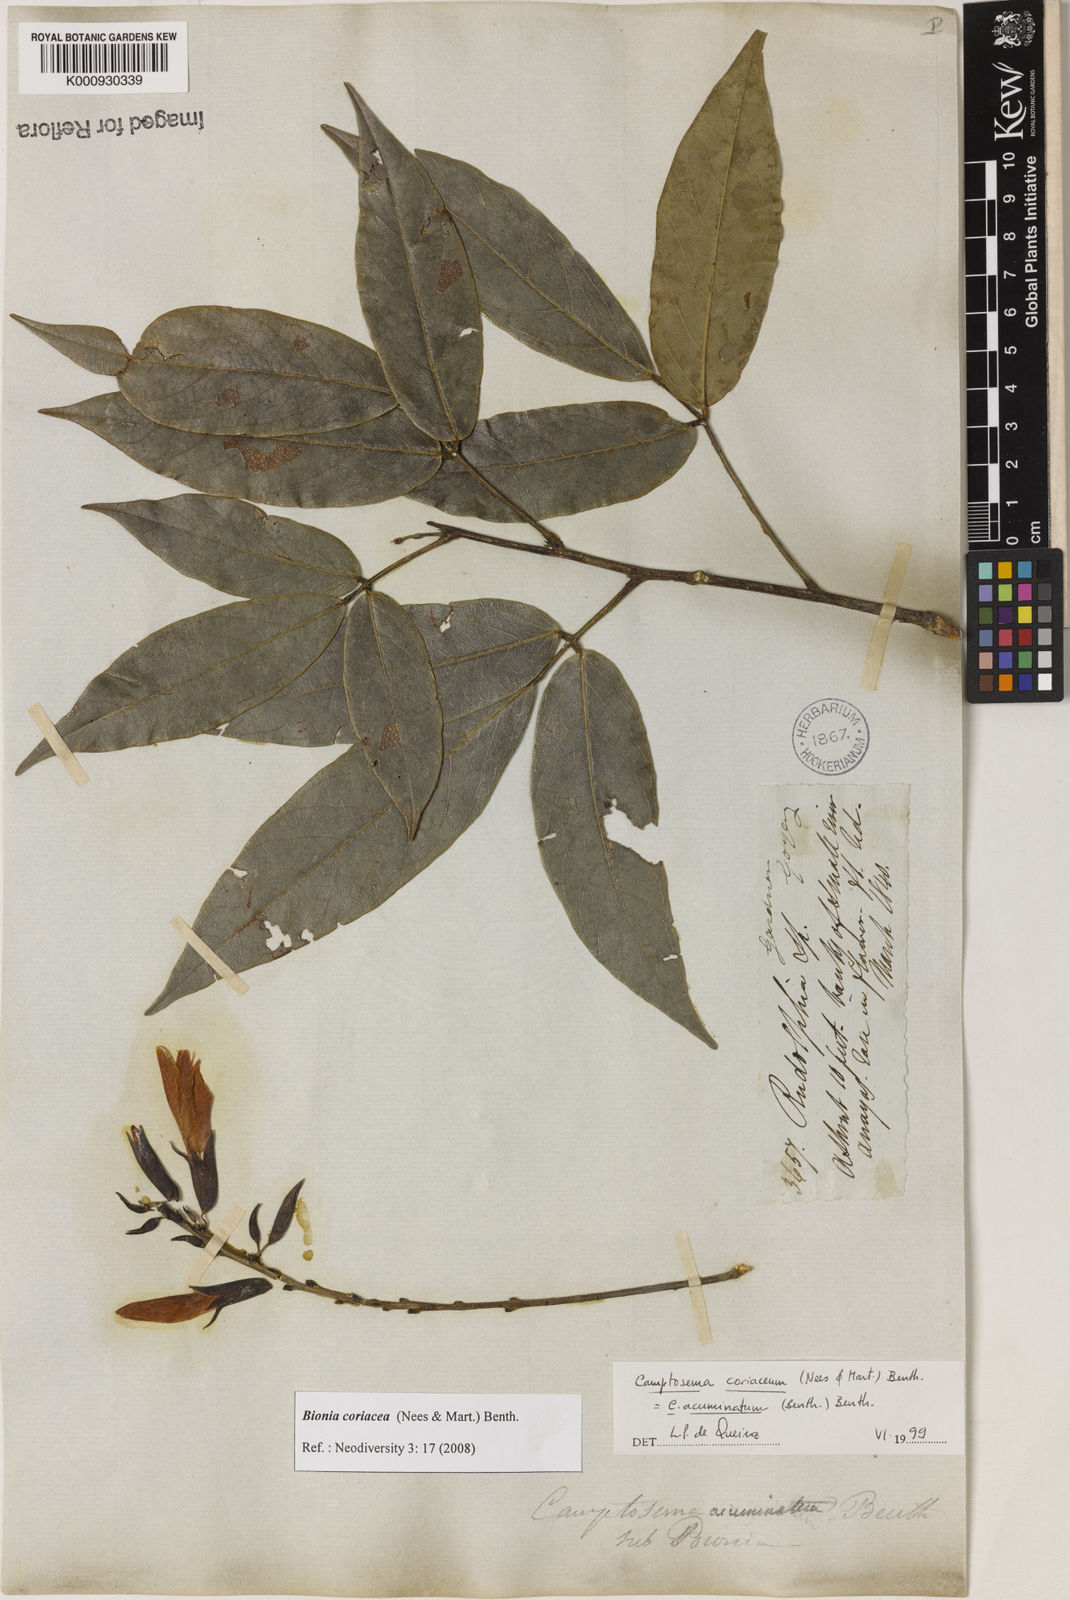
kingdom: Plantae
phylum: Tracheophyta
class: Magnoliopsida
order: Fabales
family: Fabaceae
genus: Camptosema
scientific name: Camptosema coriaceum
